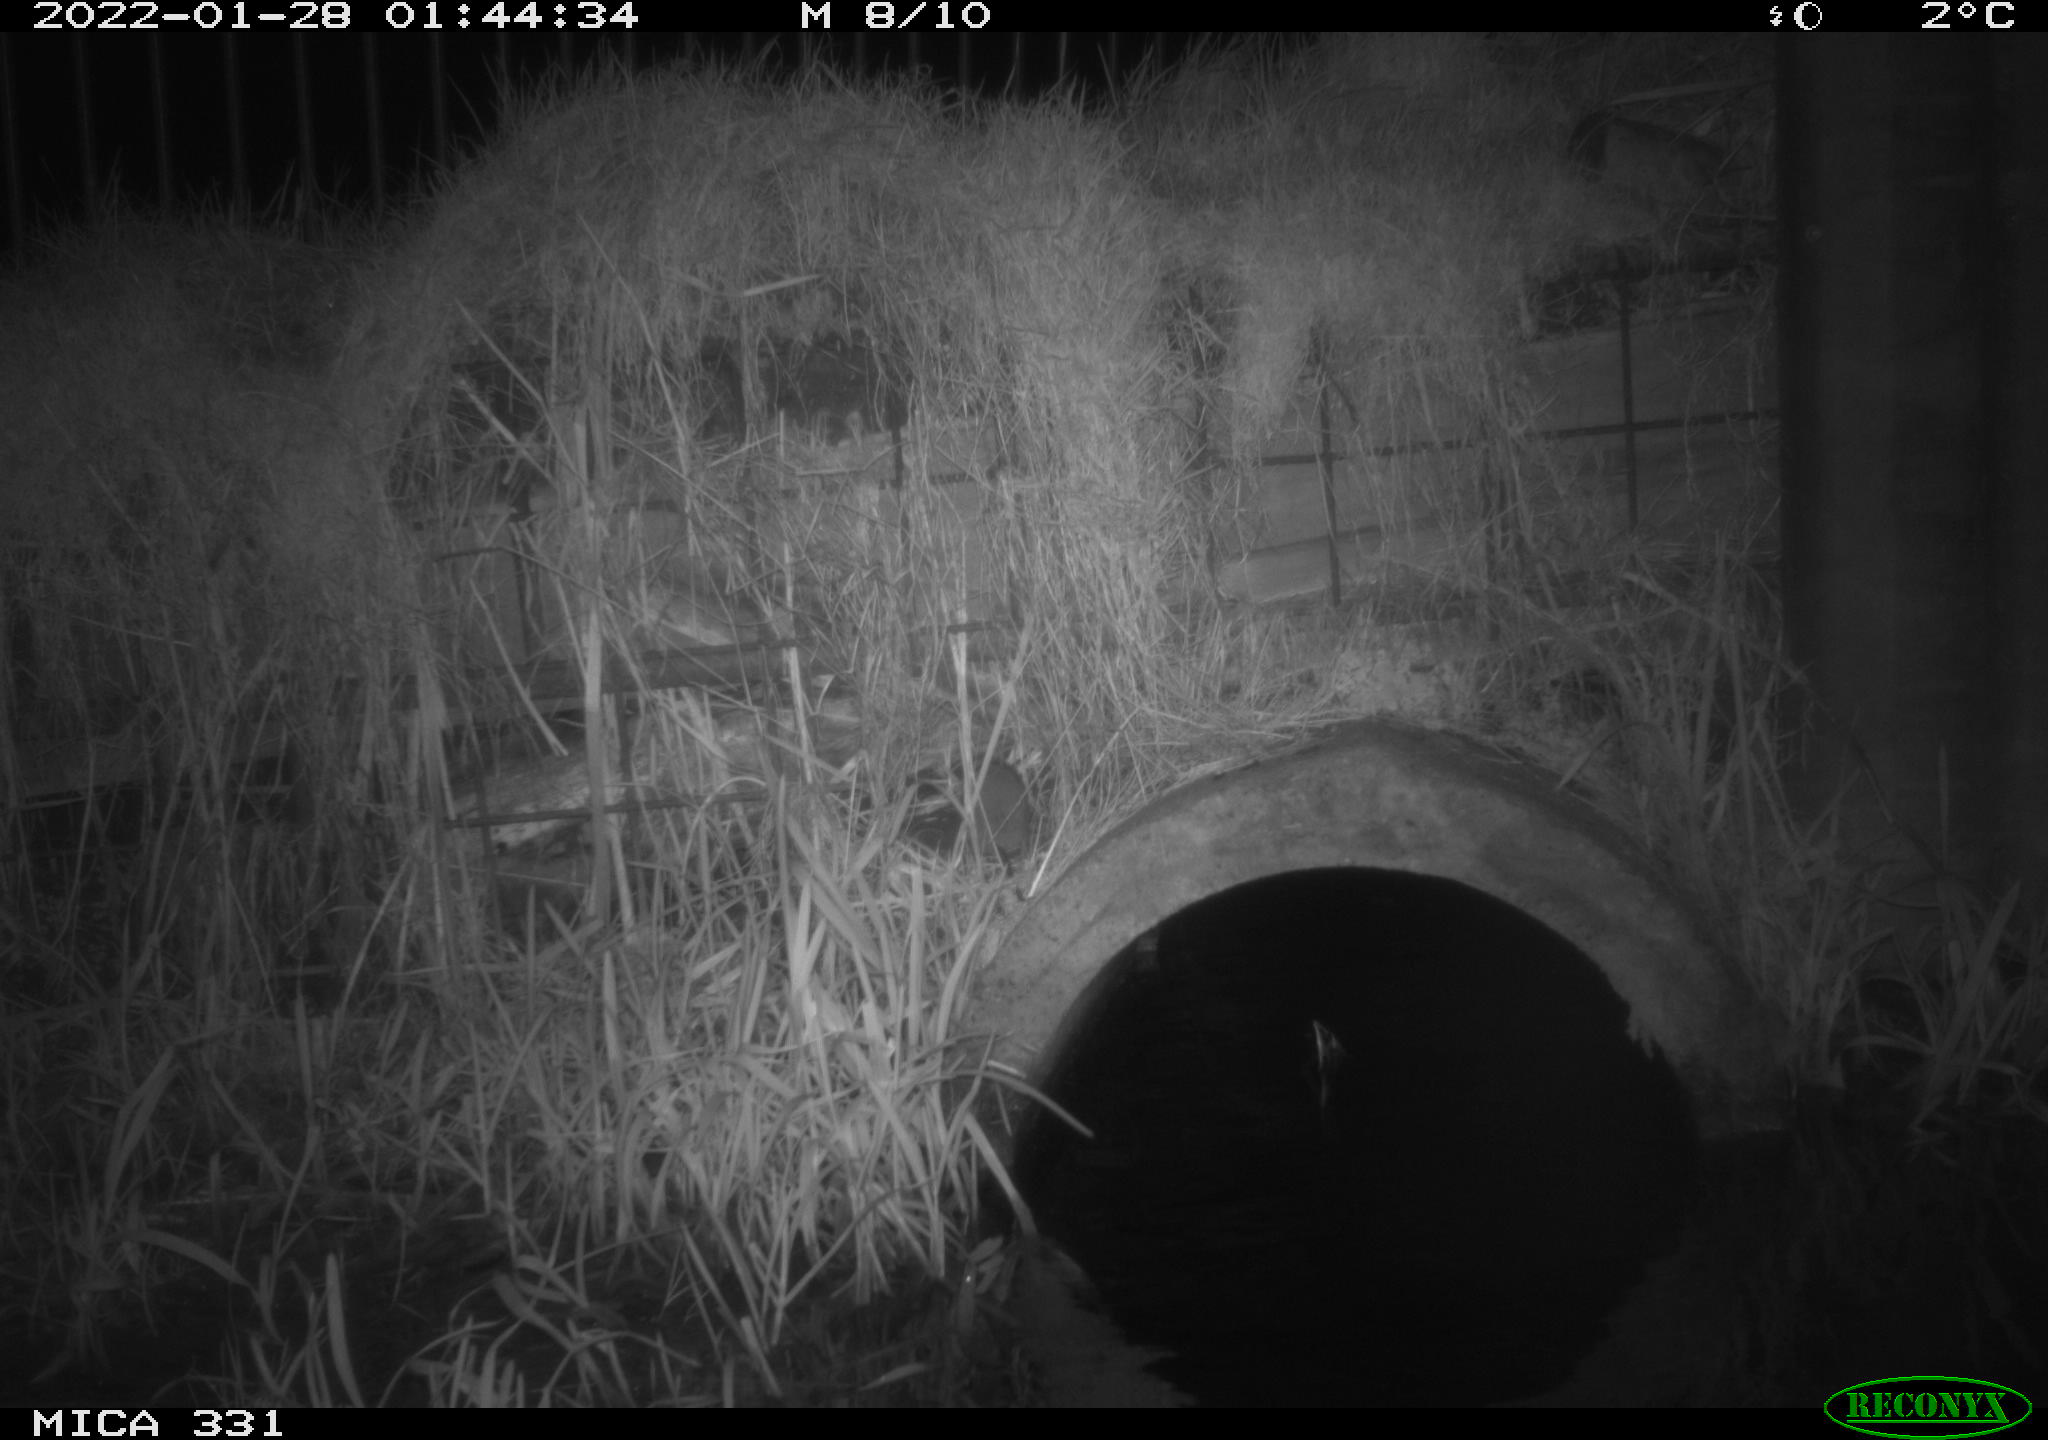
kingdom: Animalia
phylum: Chordata
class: Mammalia
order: Rodentia
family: Muridae
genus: Rattus
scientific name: Rattus norvegicus
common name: Brown rat
